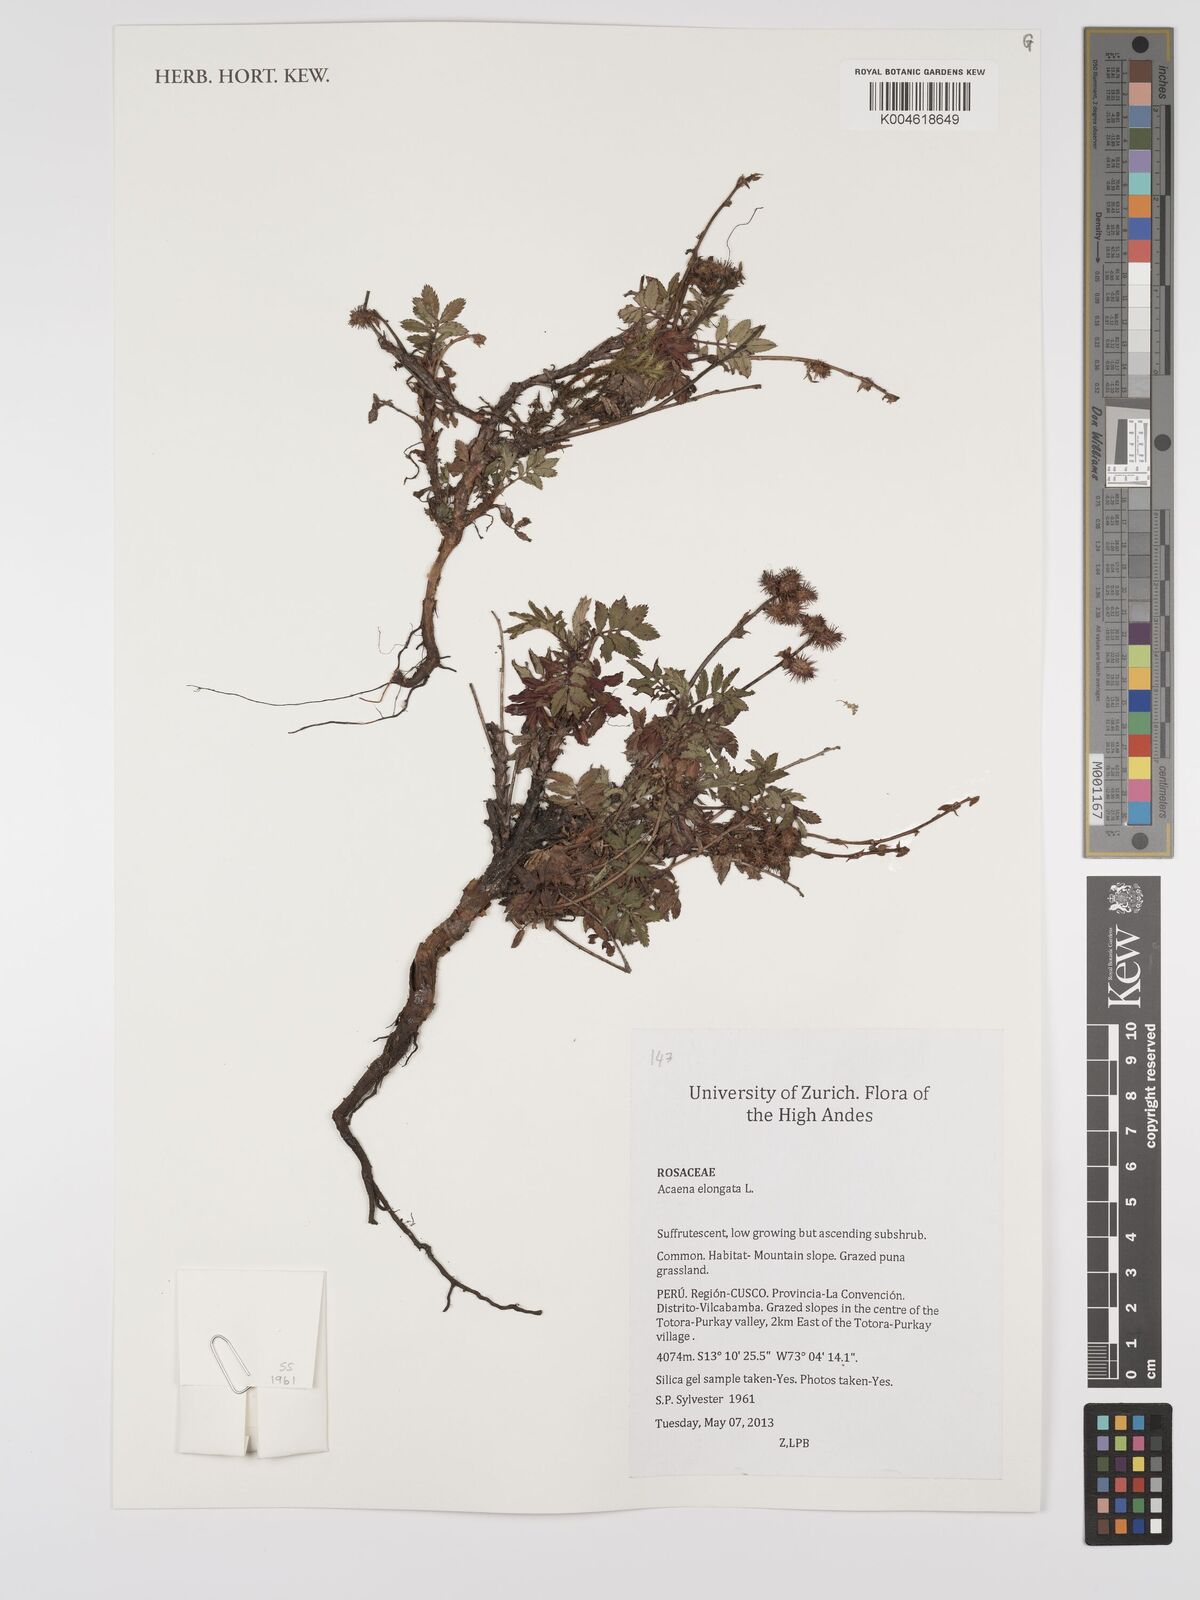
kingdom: Plantae
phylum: Tracheophyta
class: Magnoliopsida
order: Rosales
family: Rosaceae
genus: Acaena
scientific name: Acaena elongata
